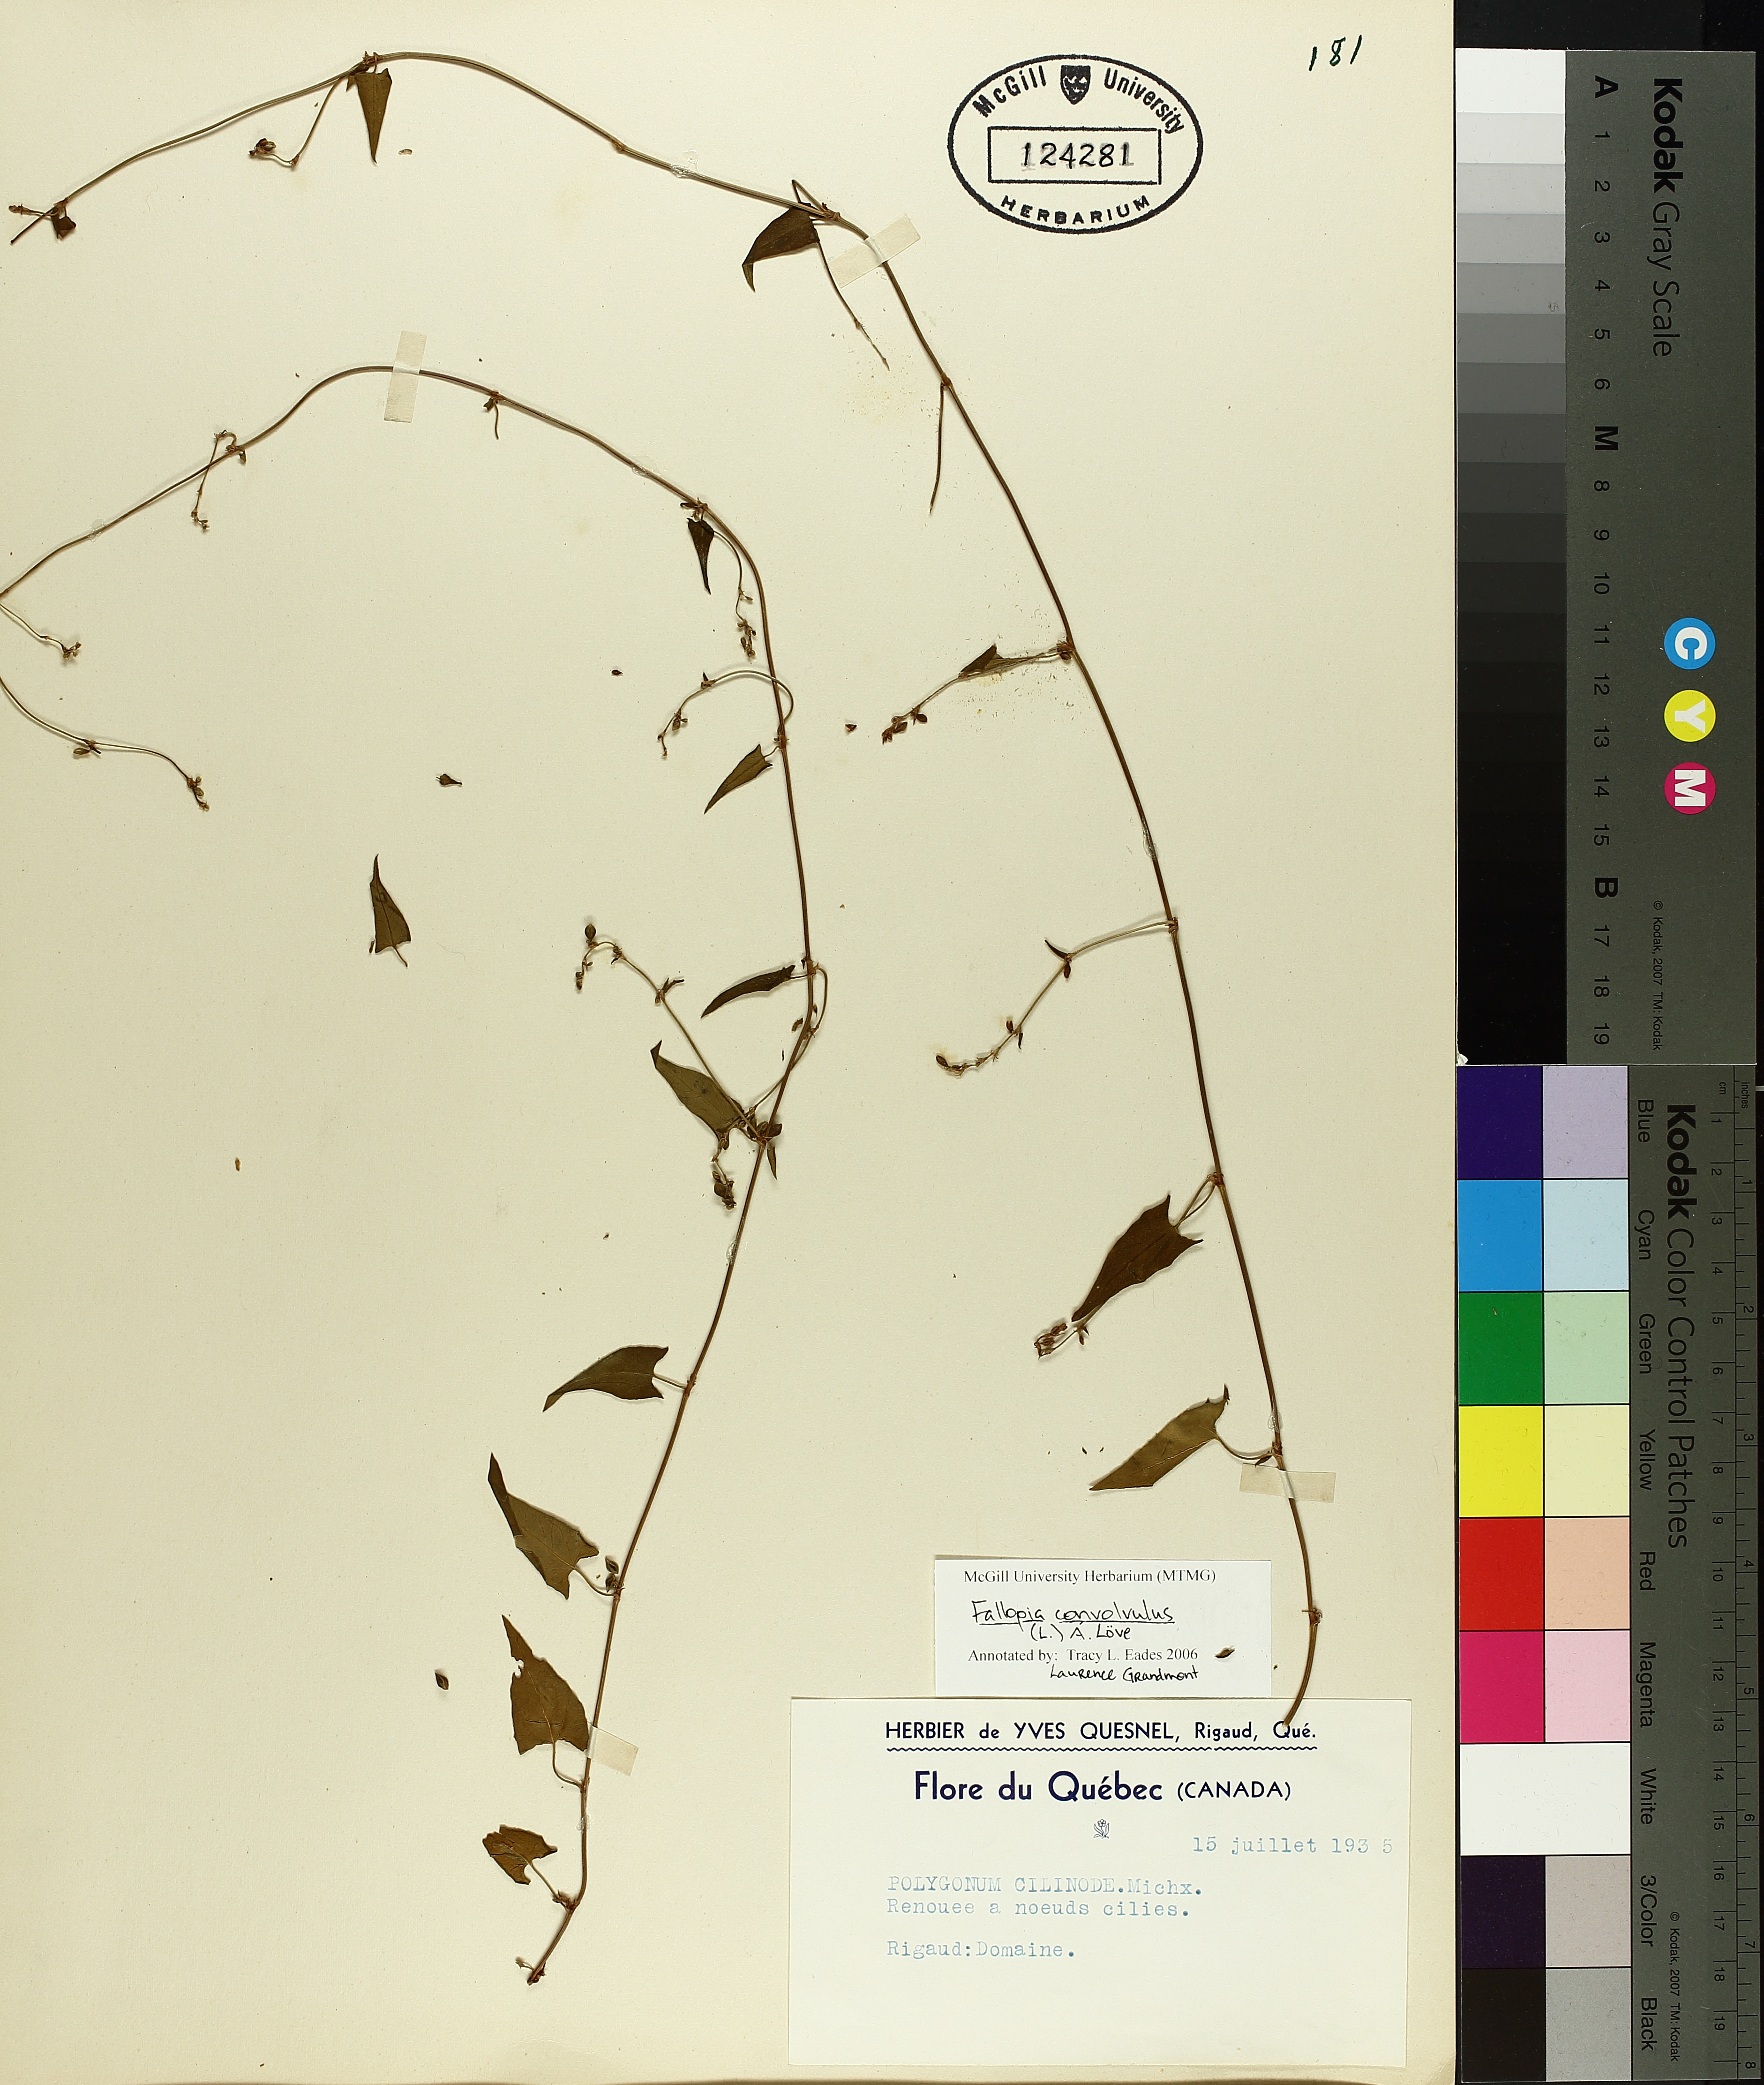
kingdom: Plantae
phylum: Tracheophyta
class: Magnoliopsida
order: Caryophyllales
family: Polygonaceae
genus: Parogonum
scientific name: Parogonum ciliinode
